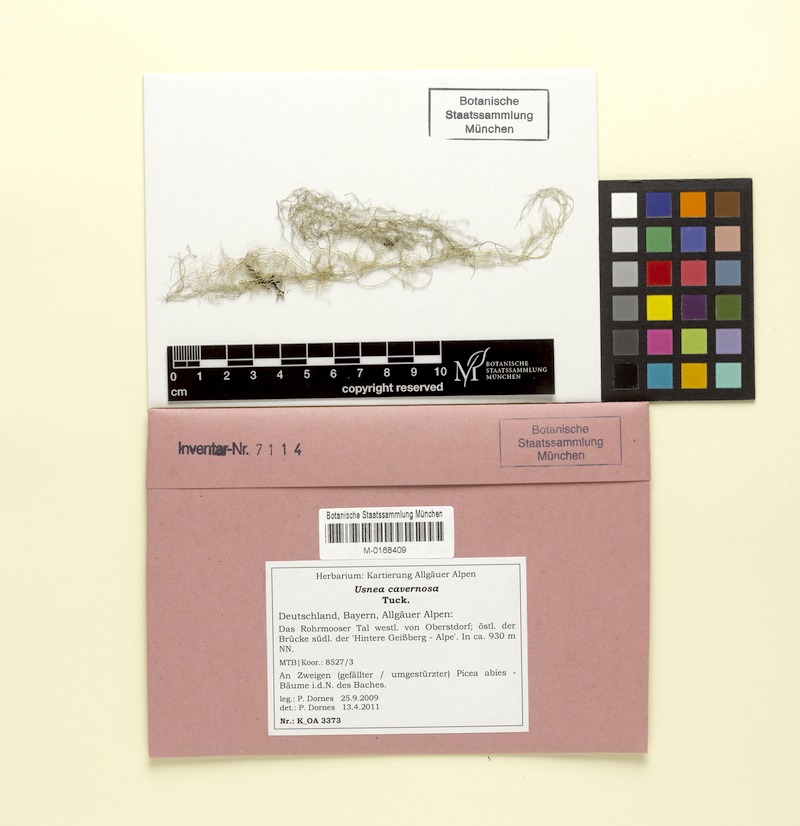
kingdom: Fungi
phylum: Ascomycota
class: Lecanoromycetes
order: Lecanorales
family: Parmeliaceae
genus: Usnea
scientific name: Usnea cavernosa
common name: Pitted beard lichen
